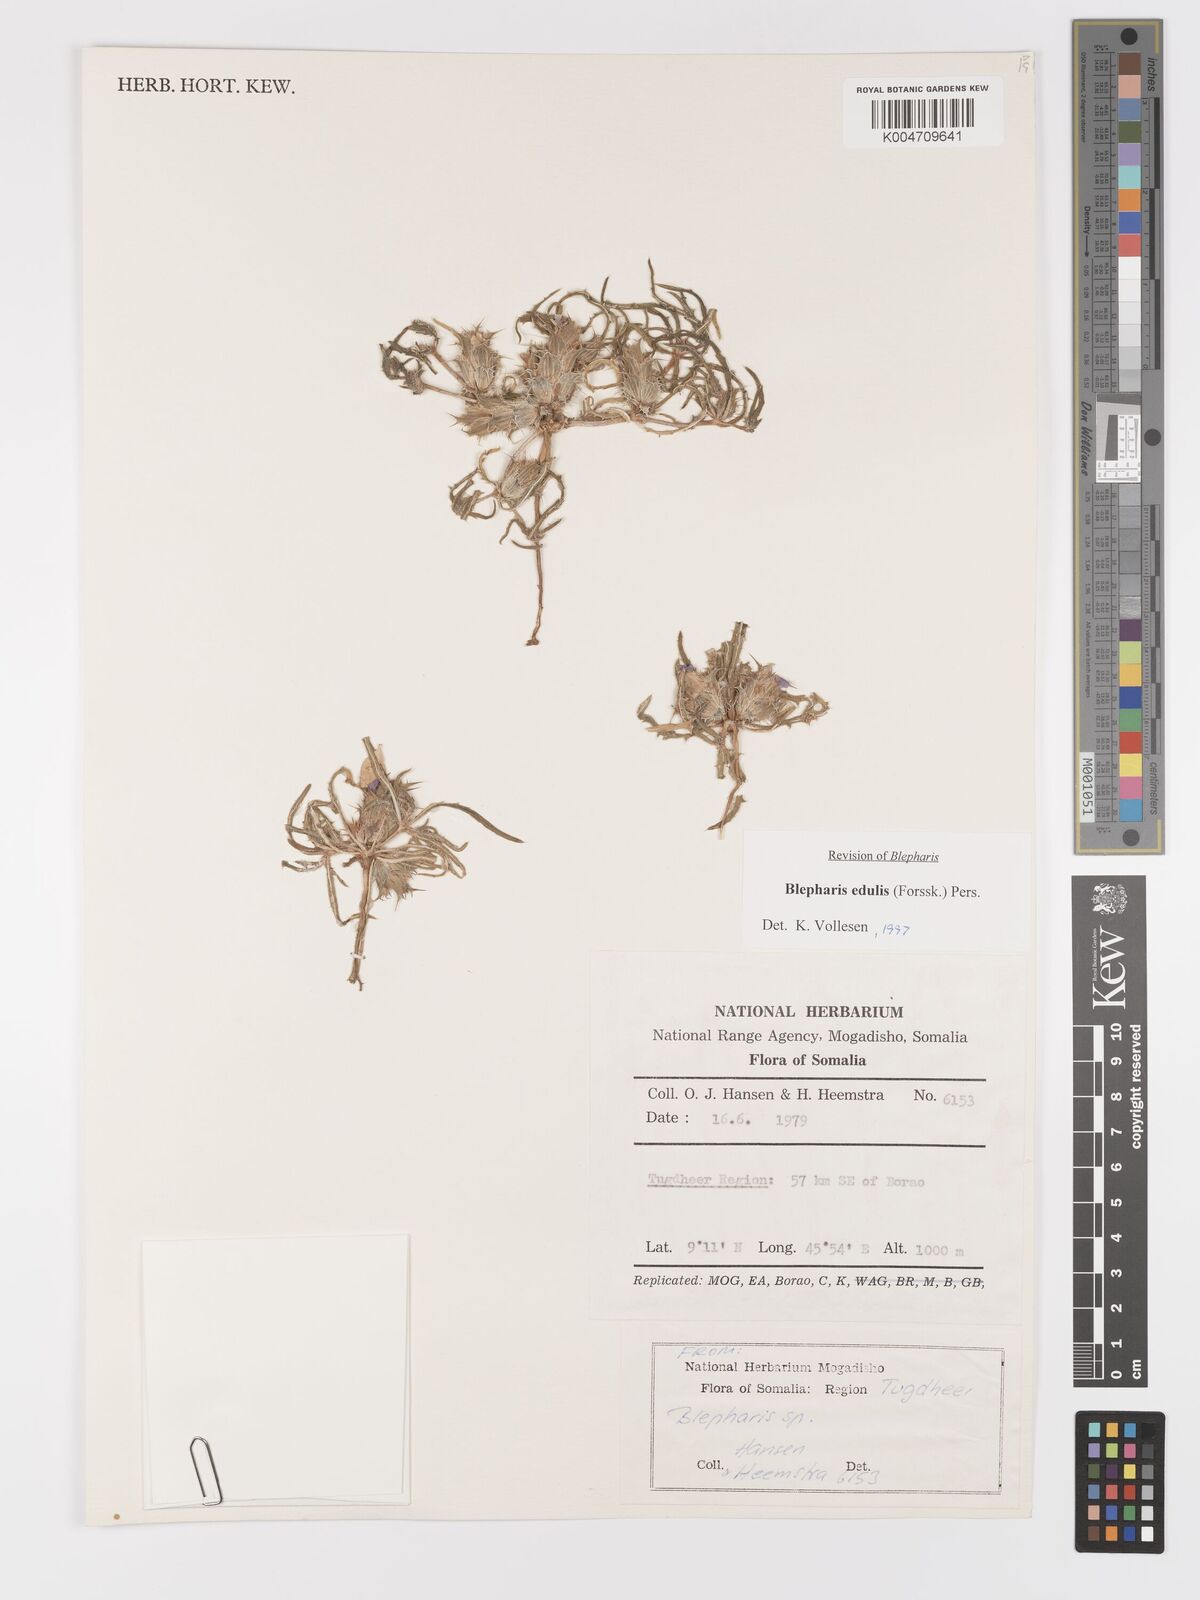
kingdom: Plantae
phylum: Tracheophyta
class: Magnoliopsida
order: Lamiales
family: Acanthaceae
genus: Blepharis
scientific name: Blepharis edulis
